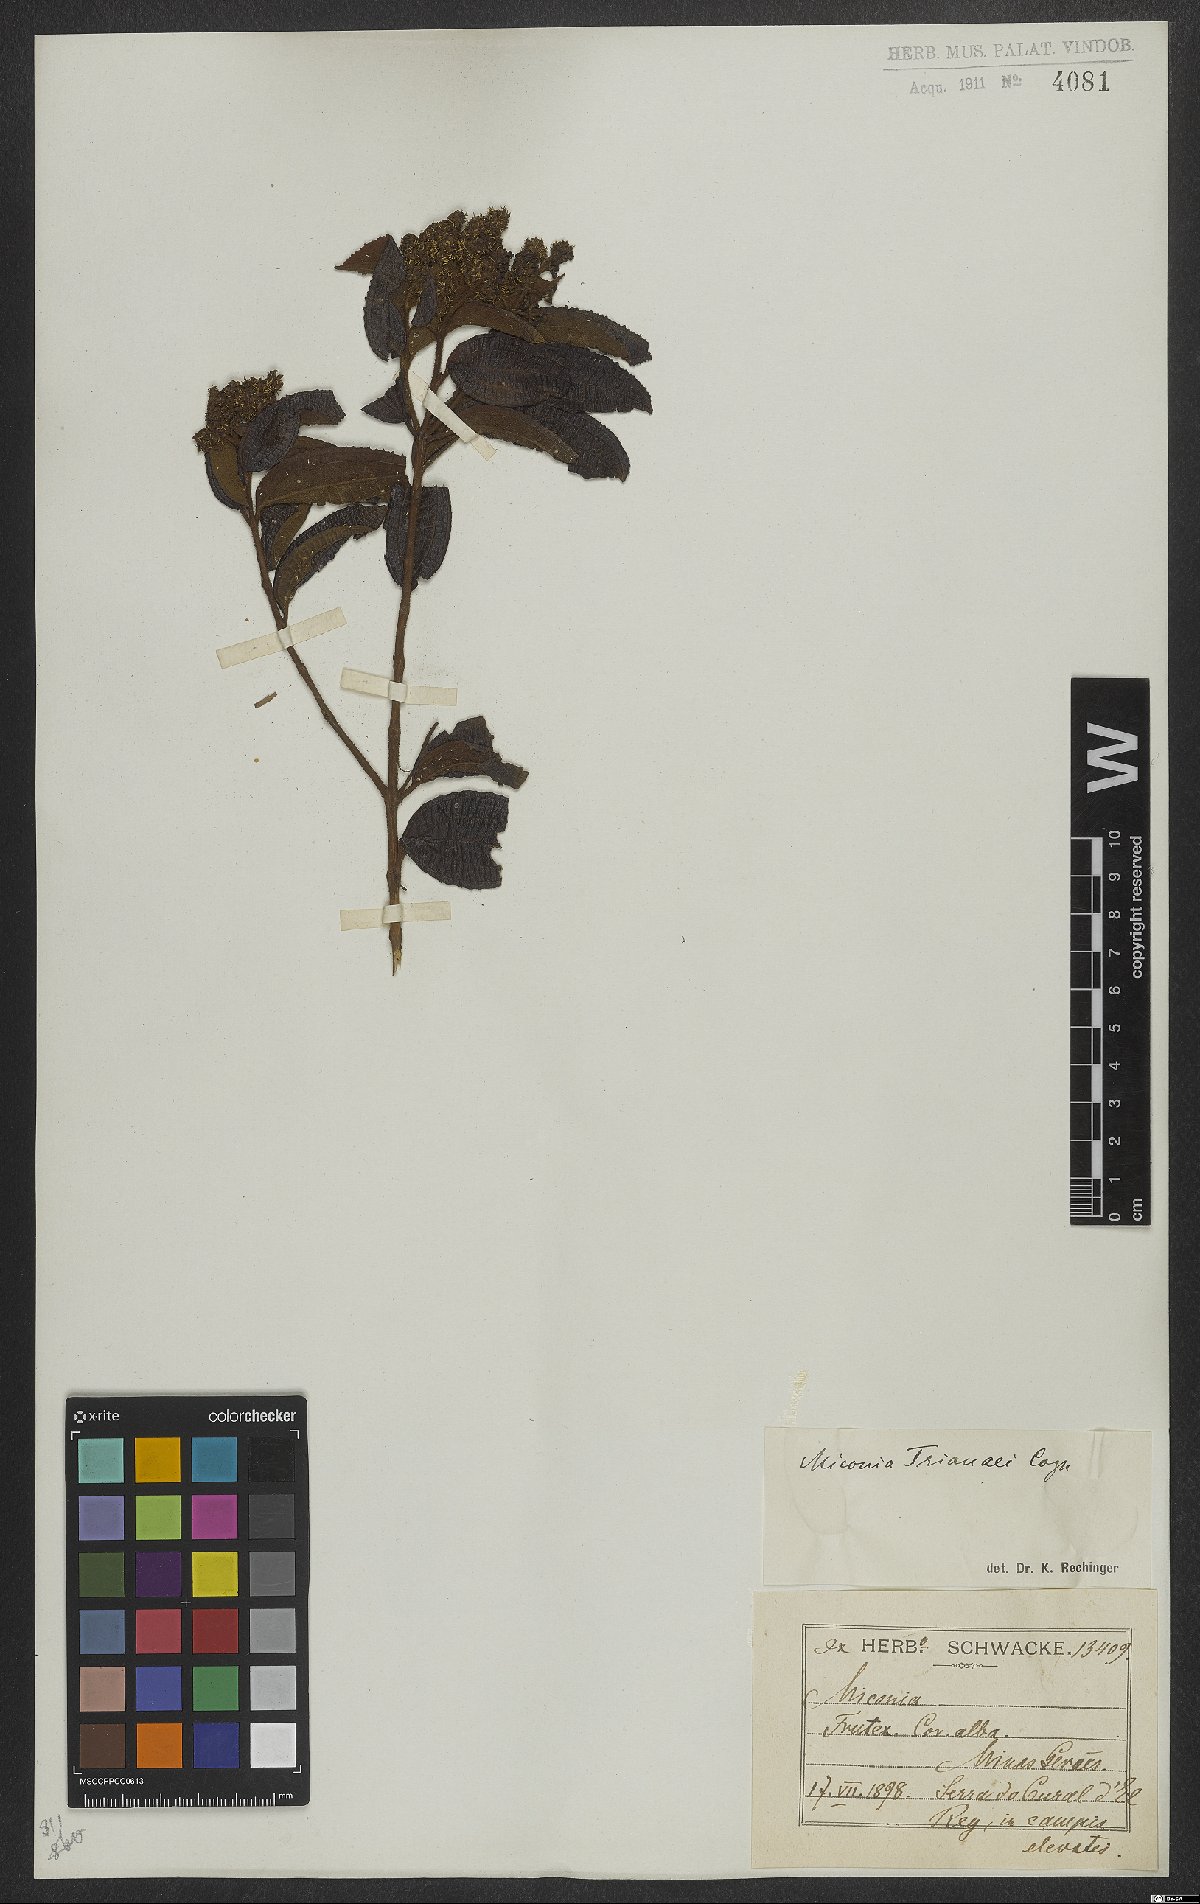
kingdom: Plantae
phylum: Tracheophyta
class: Magnoliopsida
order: Myrtales
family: Melastomataceae
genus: Miconia
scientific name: Miconia trianae
